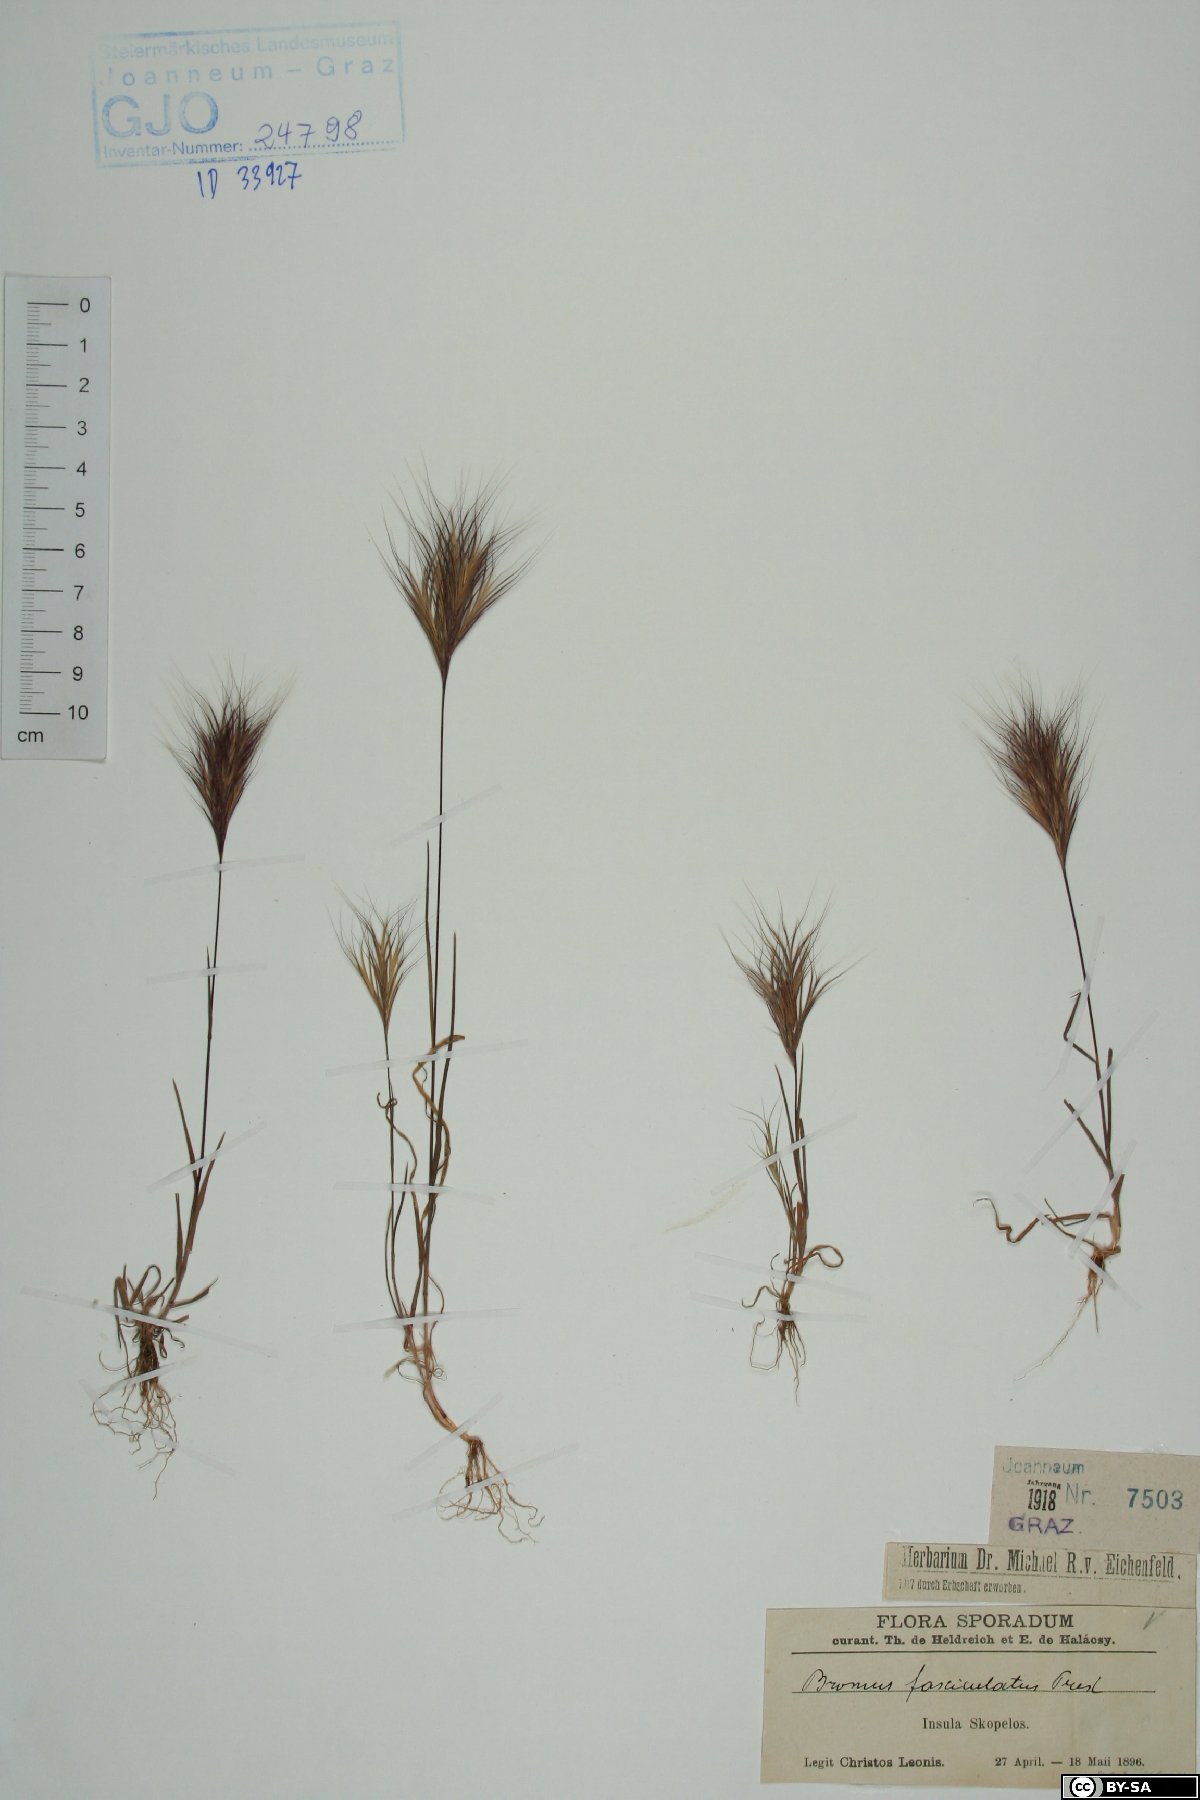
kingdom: Plantae
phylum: Tracheophyta
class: Liliopsida
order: Poales
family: Poaceae
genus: Bromus
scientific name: Bromus fasciculatus
